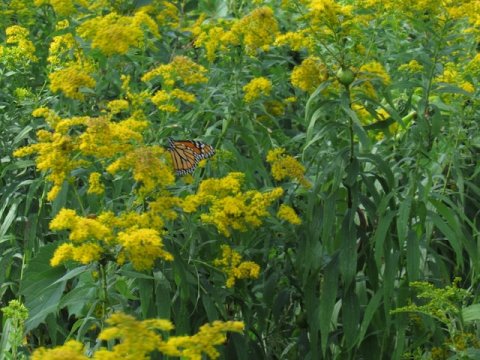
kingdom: Animalia
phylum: Arthropoda
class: Insecta
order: Lepidoptera
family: Nymphalidae
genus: Danaus
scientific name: Danaus plexippus
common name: Monarch
